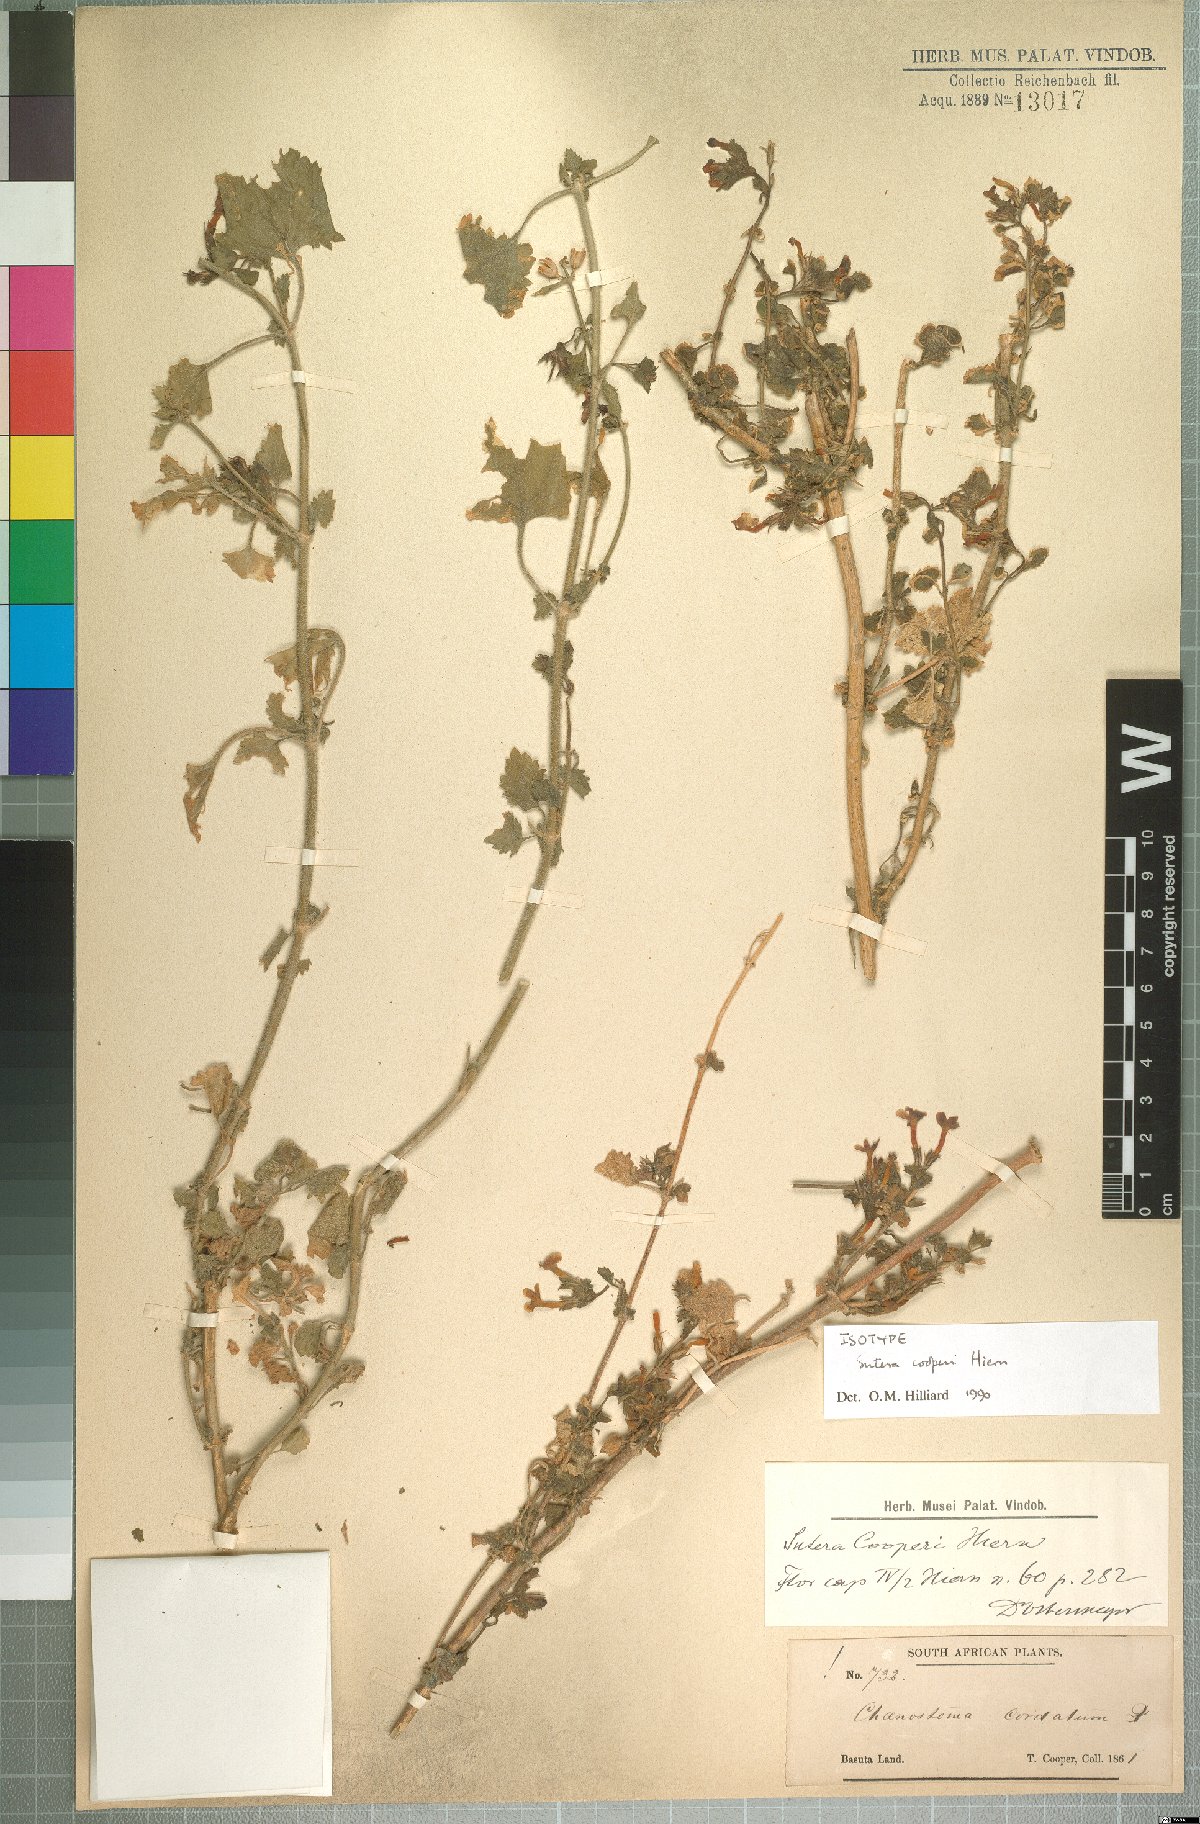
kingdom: Plantae
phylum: Tracheophyta
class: Magnoliopsida
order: Lamiales
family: Scrophulariaceae
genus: Sutera
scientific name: Sutera cooperi
